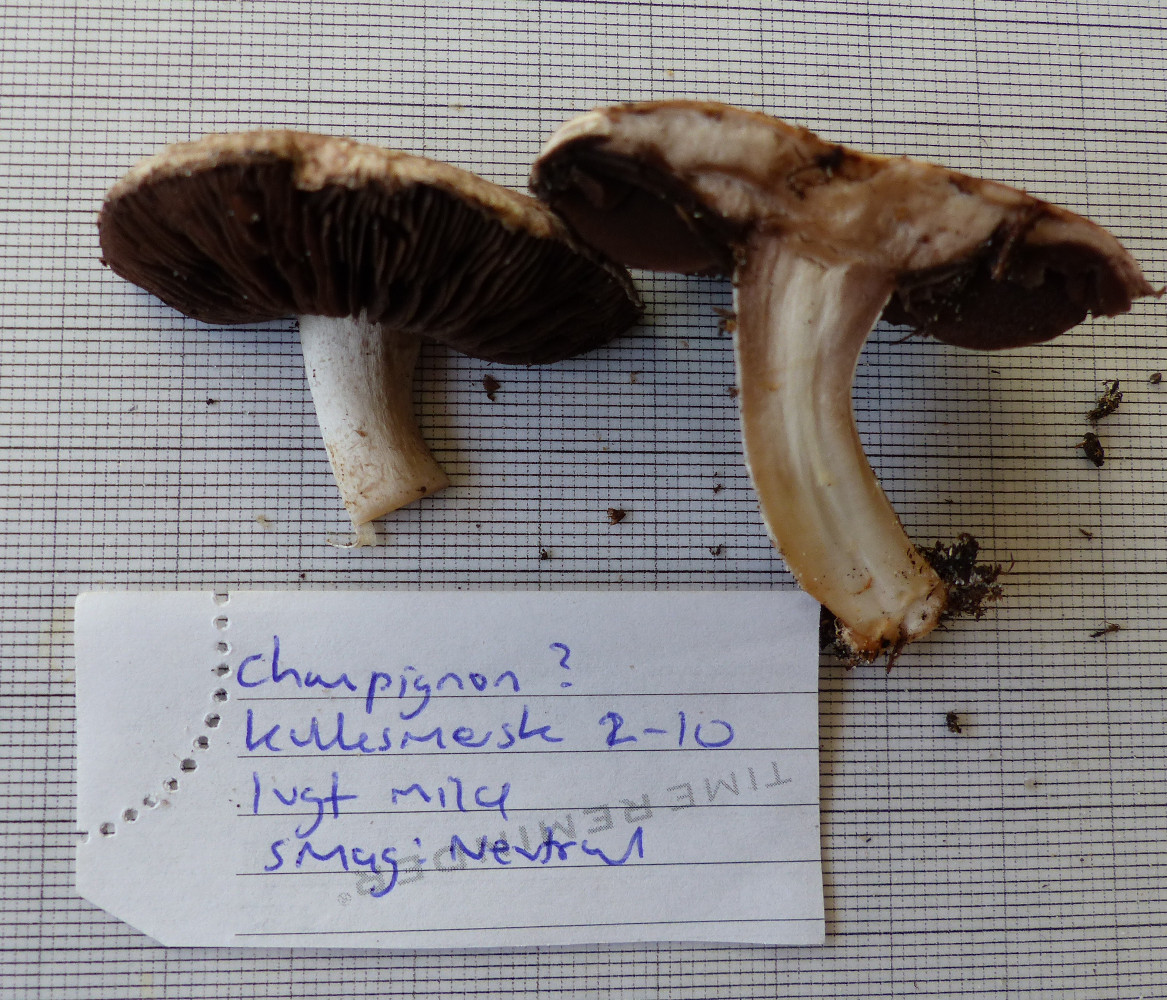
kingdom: Fungi
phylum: Basidiomycota
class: Agaricomycetes
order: Agaricales
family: Agaricaceae
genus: Agaricus
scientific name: Agaricus cupreobrunneus
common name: kobberbrun champignon
